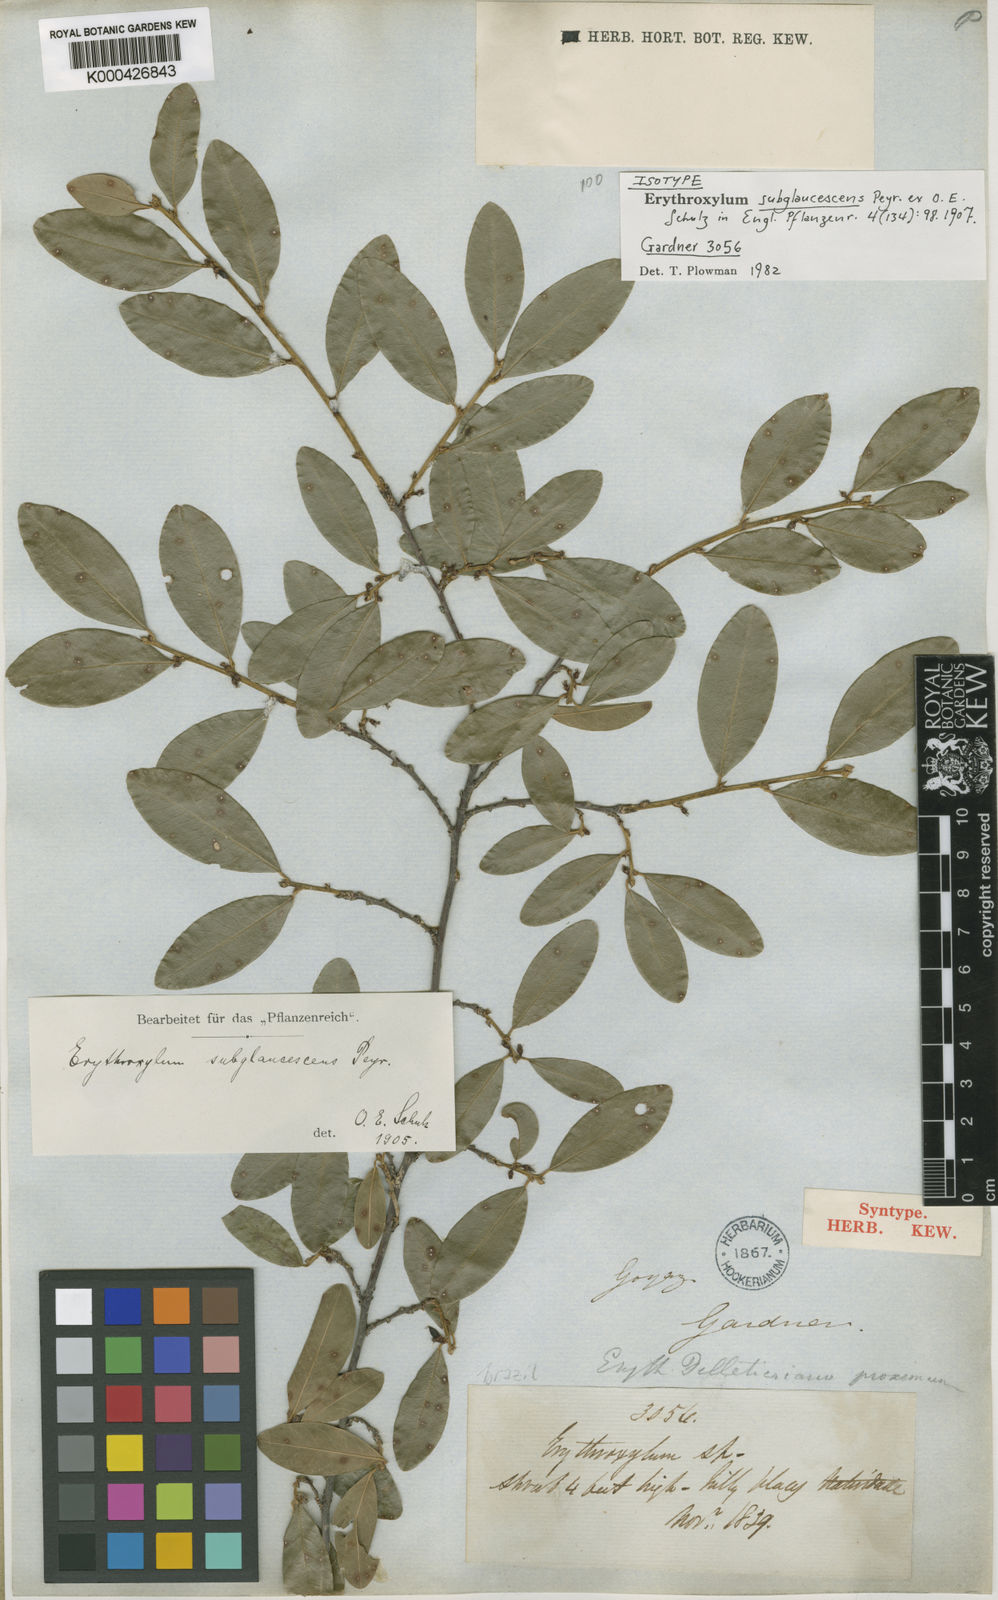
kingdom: Plantae
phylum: Tracheophyta
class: Magnoliopsida
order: Malpighiales
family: Erythroxylaceae
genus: Erythroxylum
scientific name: Erythroxylum
